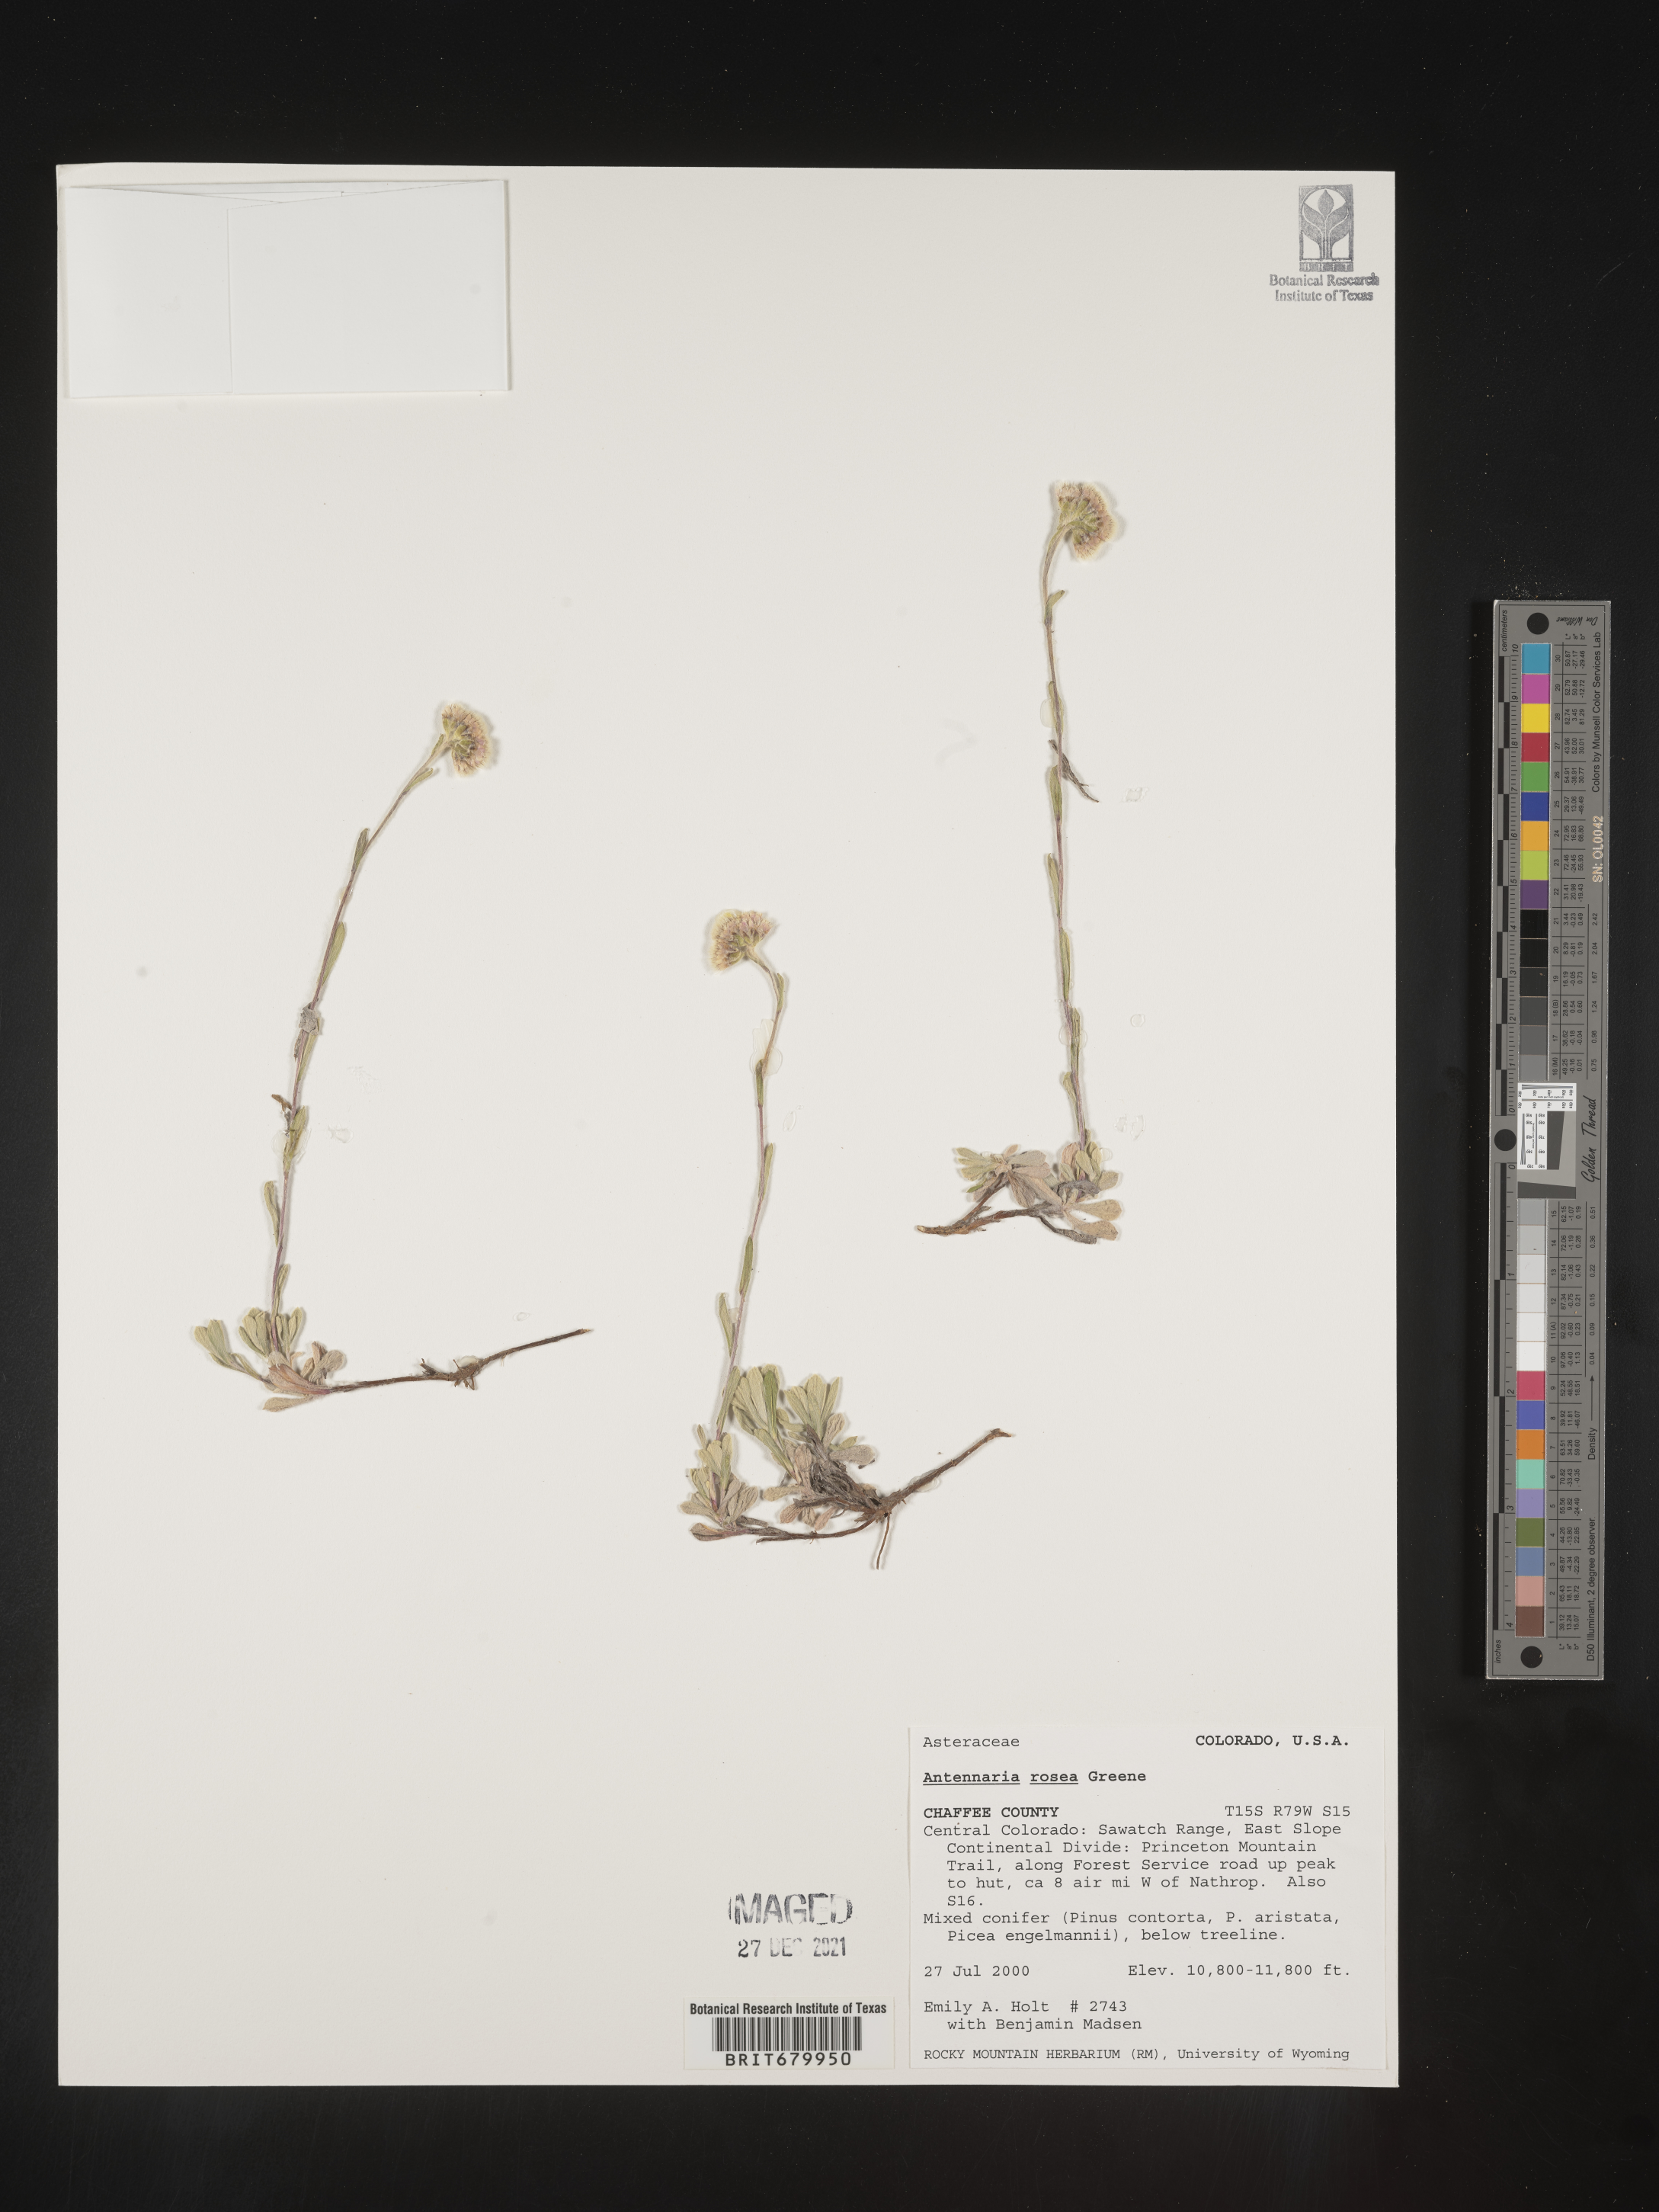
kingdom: Plantae
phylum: Tracheophyta
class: Magnoliopsida
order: Asterales
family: Asteraceae
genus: Antennaria
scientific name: Antennaria rosea
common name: Rosy pussytoes
